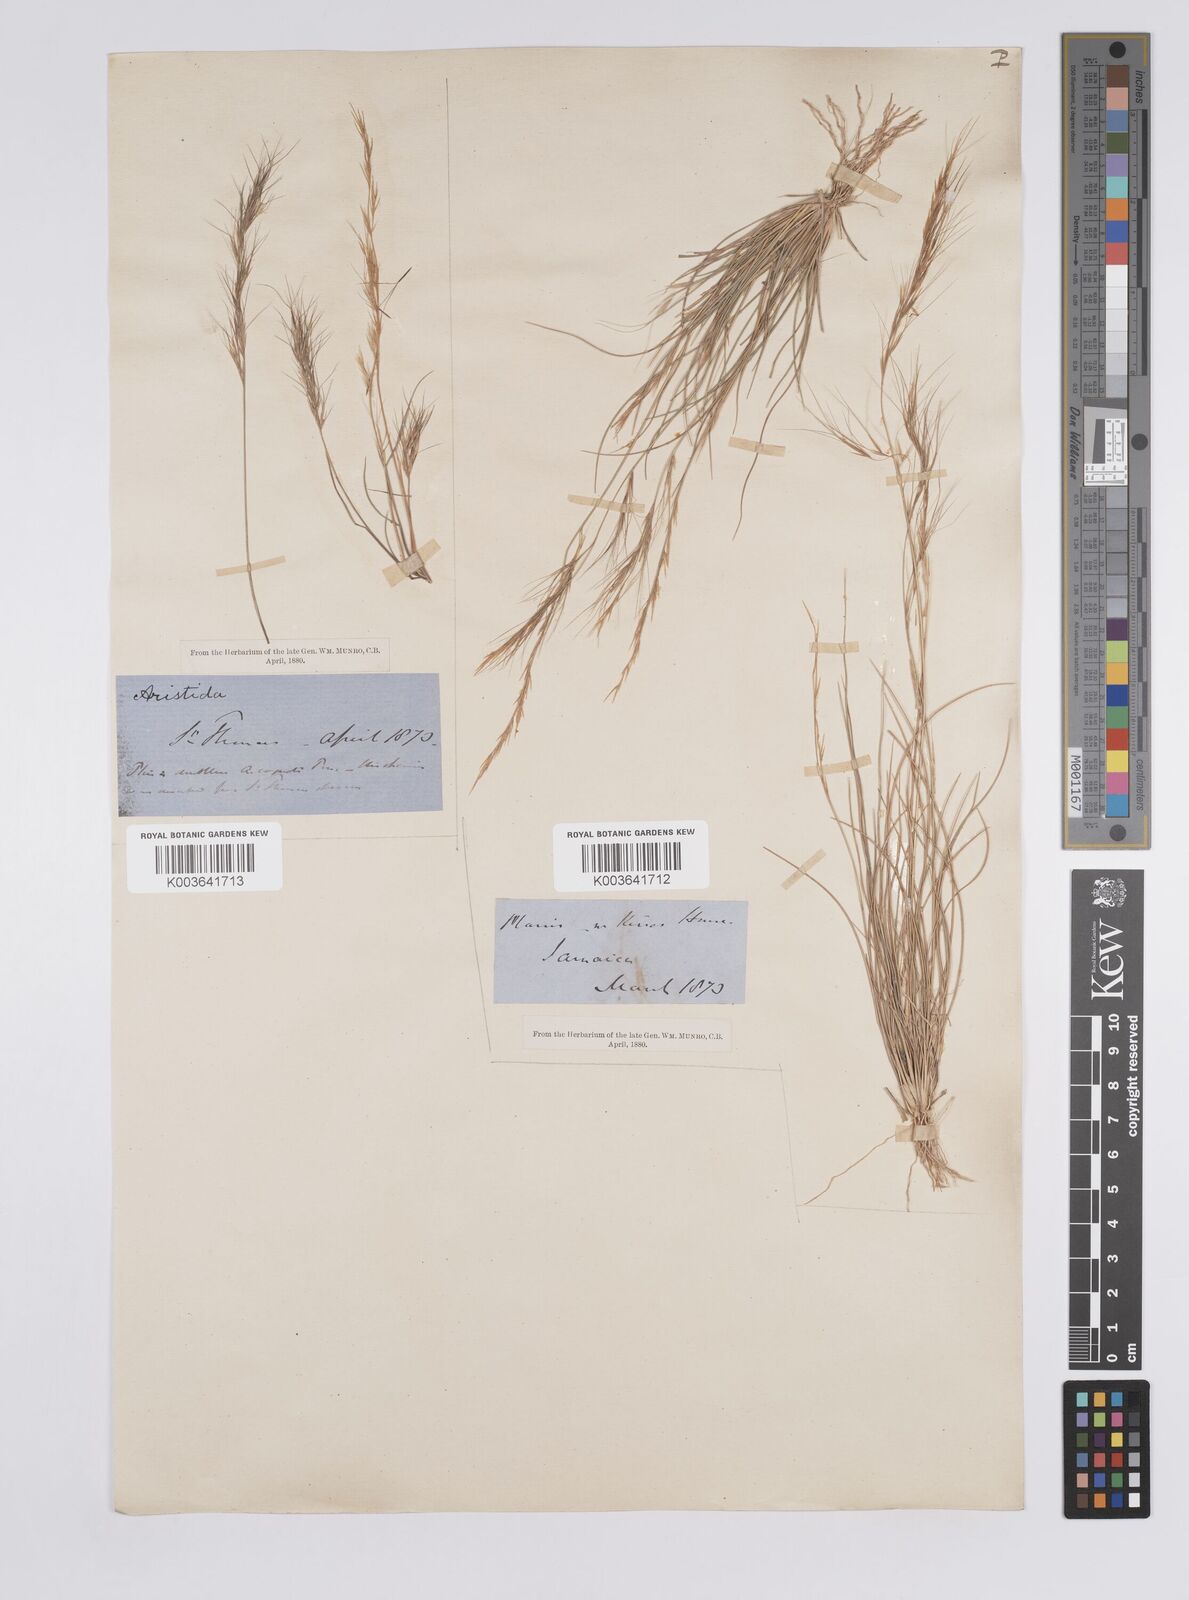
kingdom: Plantae
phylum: Tracheophyta
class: Liliopsida
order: Poales
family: Poaceae
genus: Aristida
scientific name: Aristida
